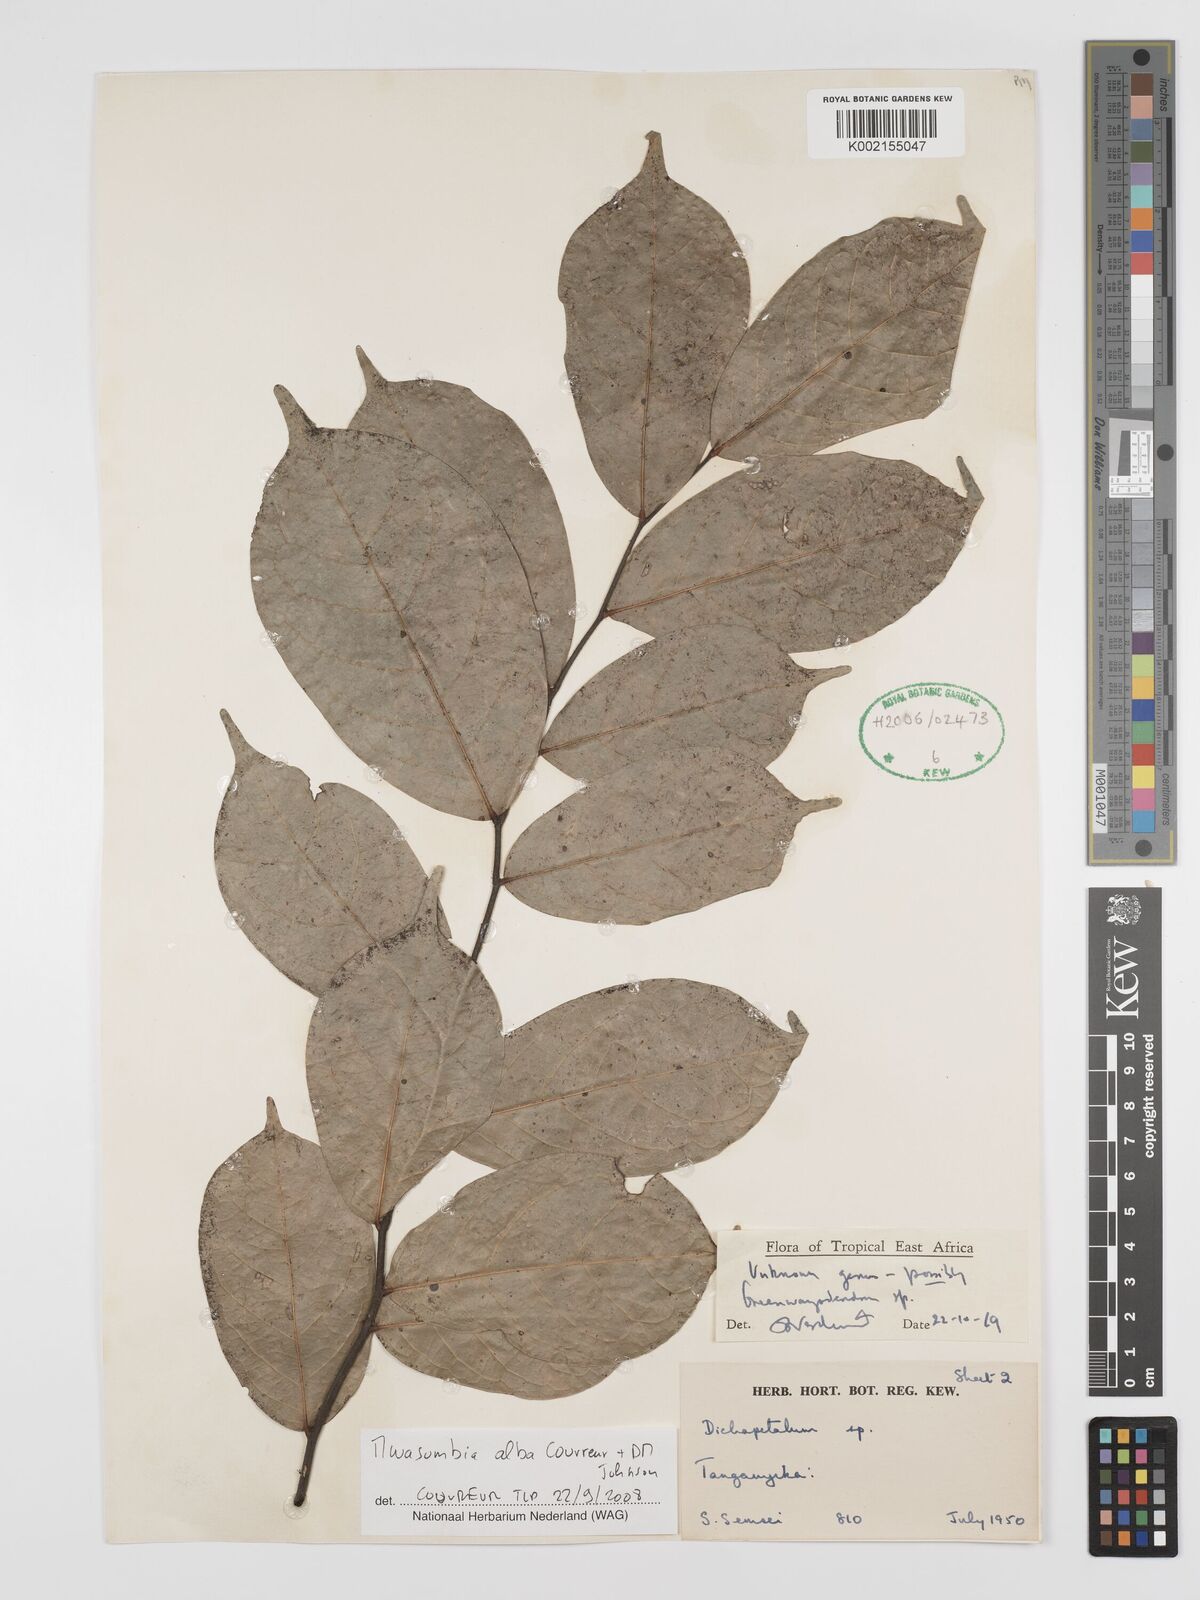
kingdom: Plantae
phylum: Tracheophyta
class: Magnoliopsida
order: Magnoliales
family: Annonaceae
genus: Mwasumbia
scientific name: Mwasumbia alba
